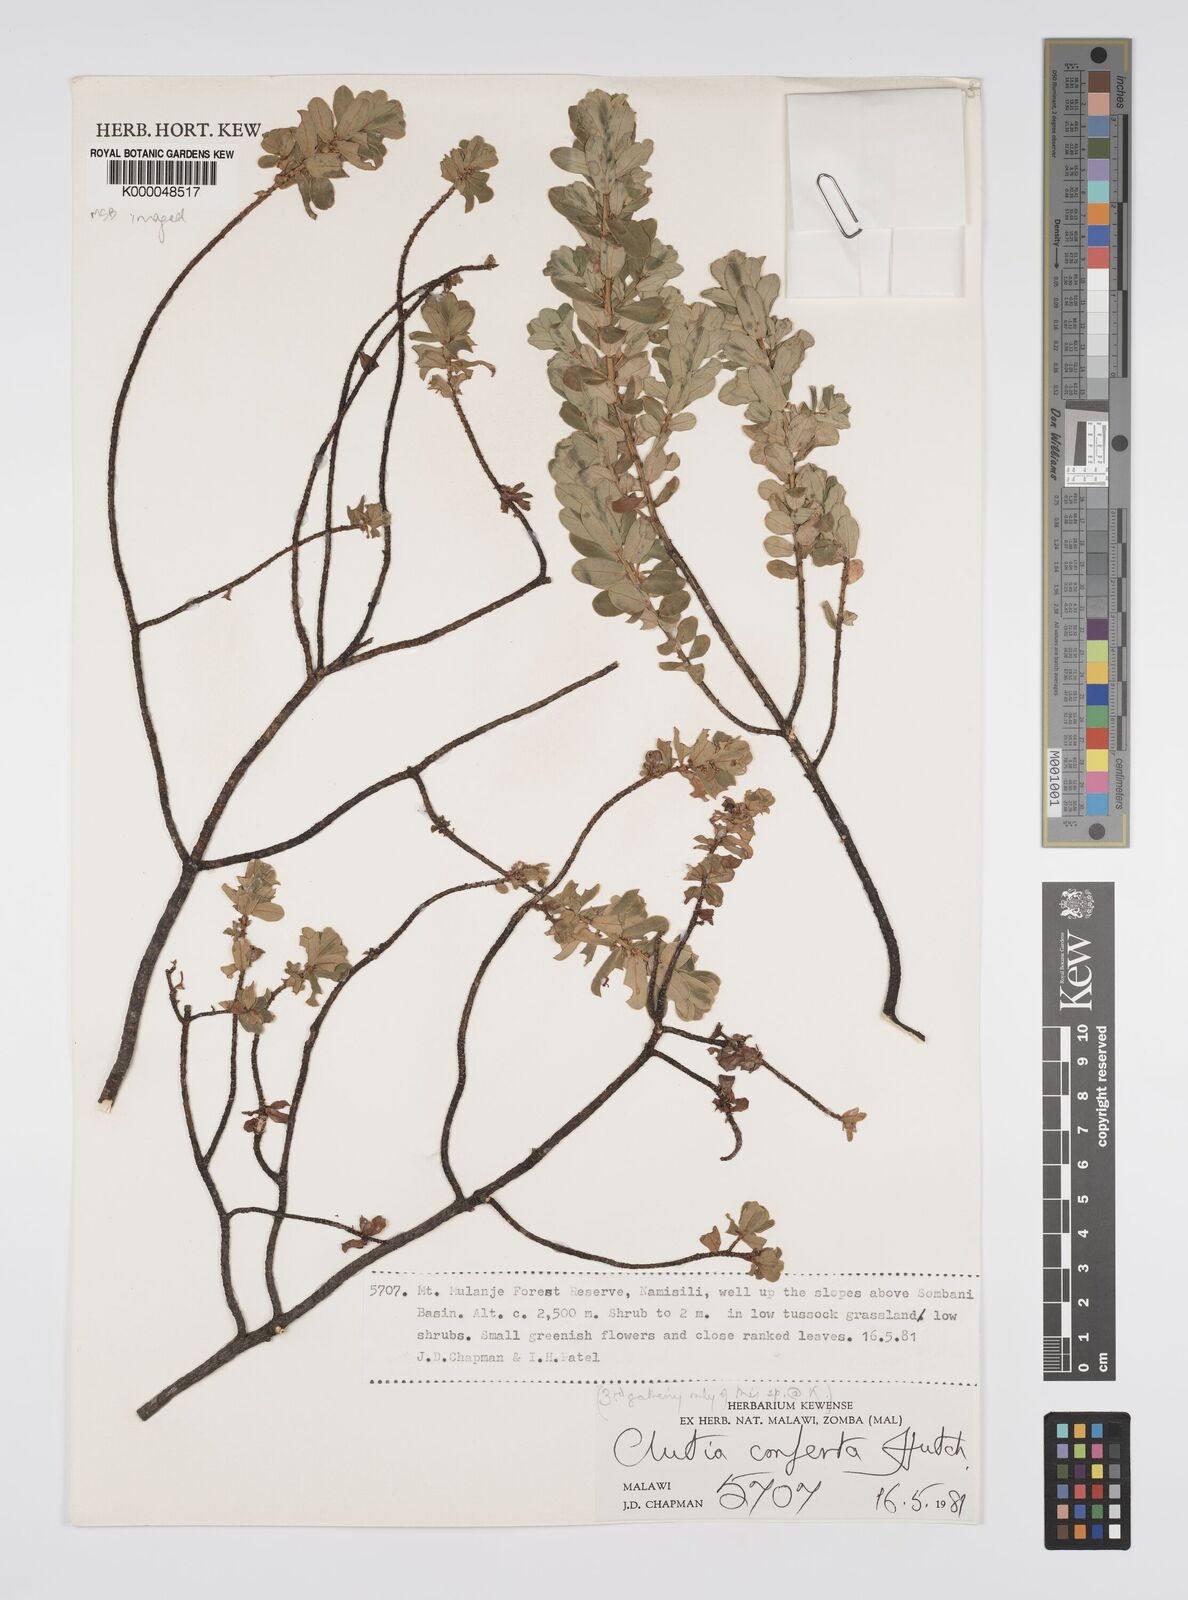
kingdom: Plantae
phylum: Tracheophyta
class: Magnoliopsida
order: Malpighiales
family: Peraceae
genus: Clutia
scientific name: Clutia conferta
